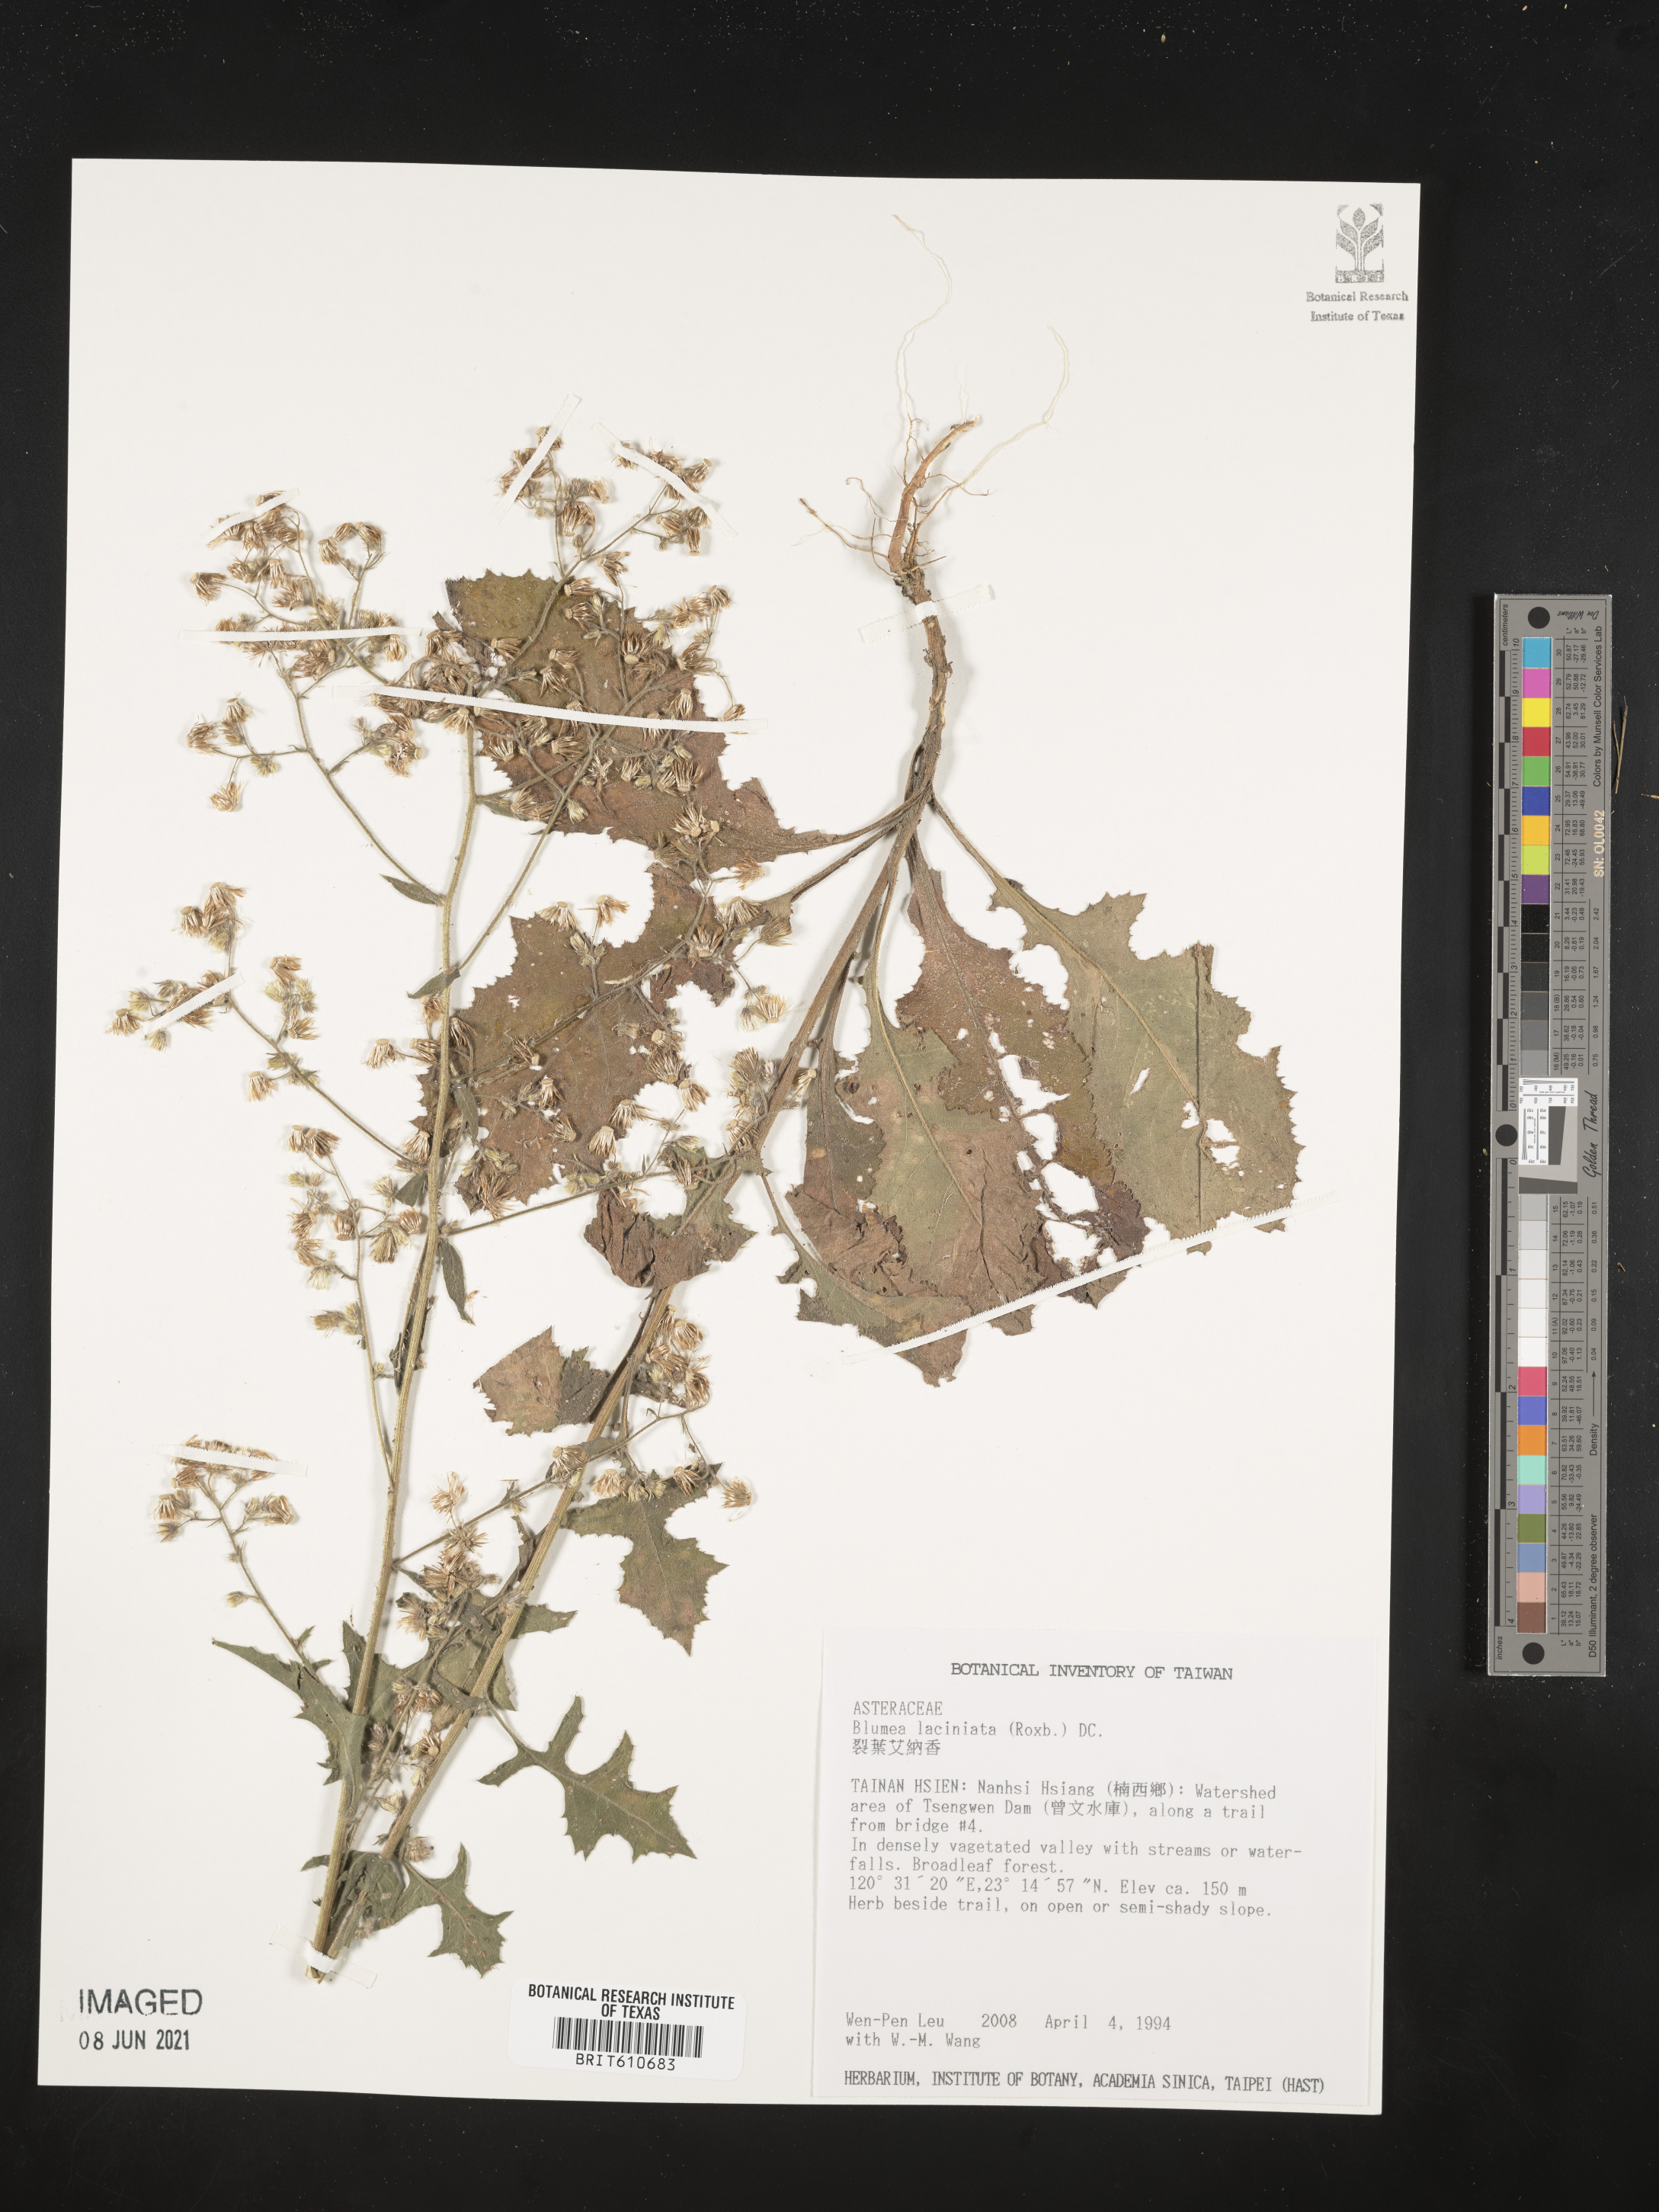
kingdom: Plantae
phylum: Tracheophyta
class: Magnoliopsida
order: Asterales
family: Asteraceae
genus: Blumea
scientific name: Blumea sinuata
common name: Cutleaf false oxtongue
